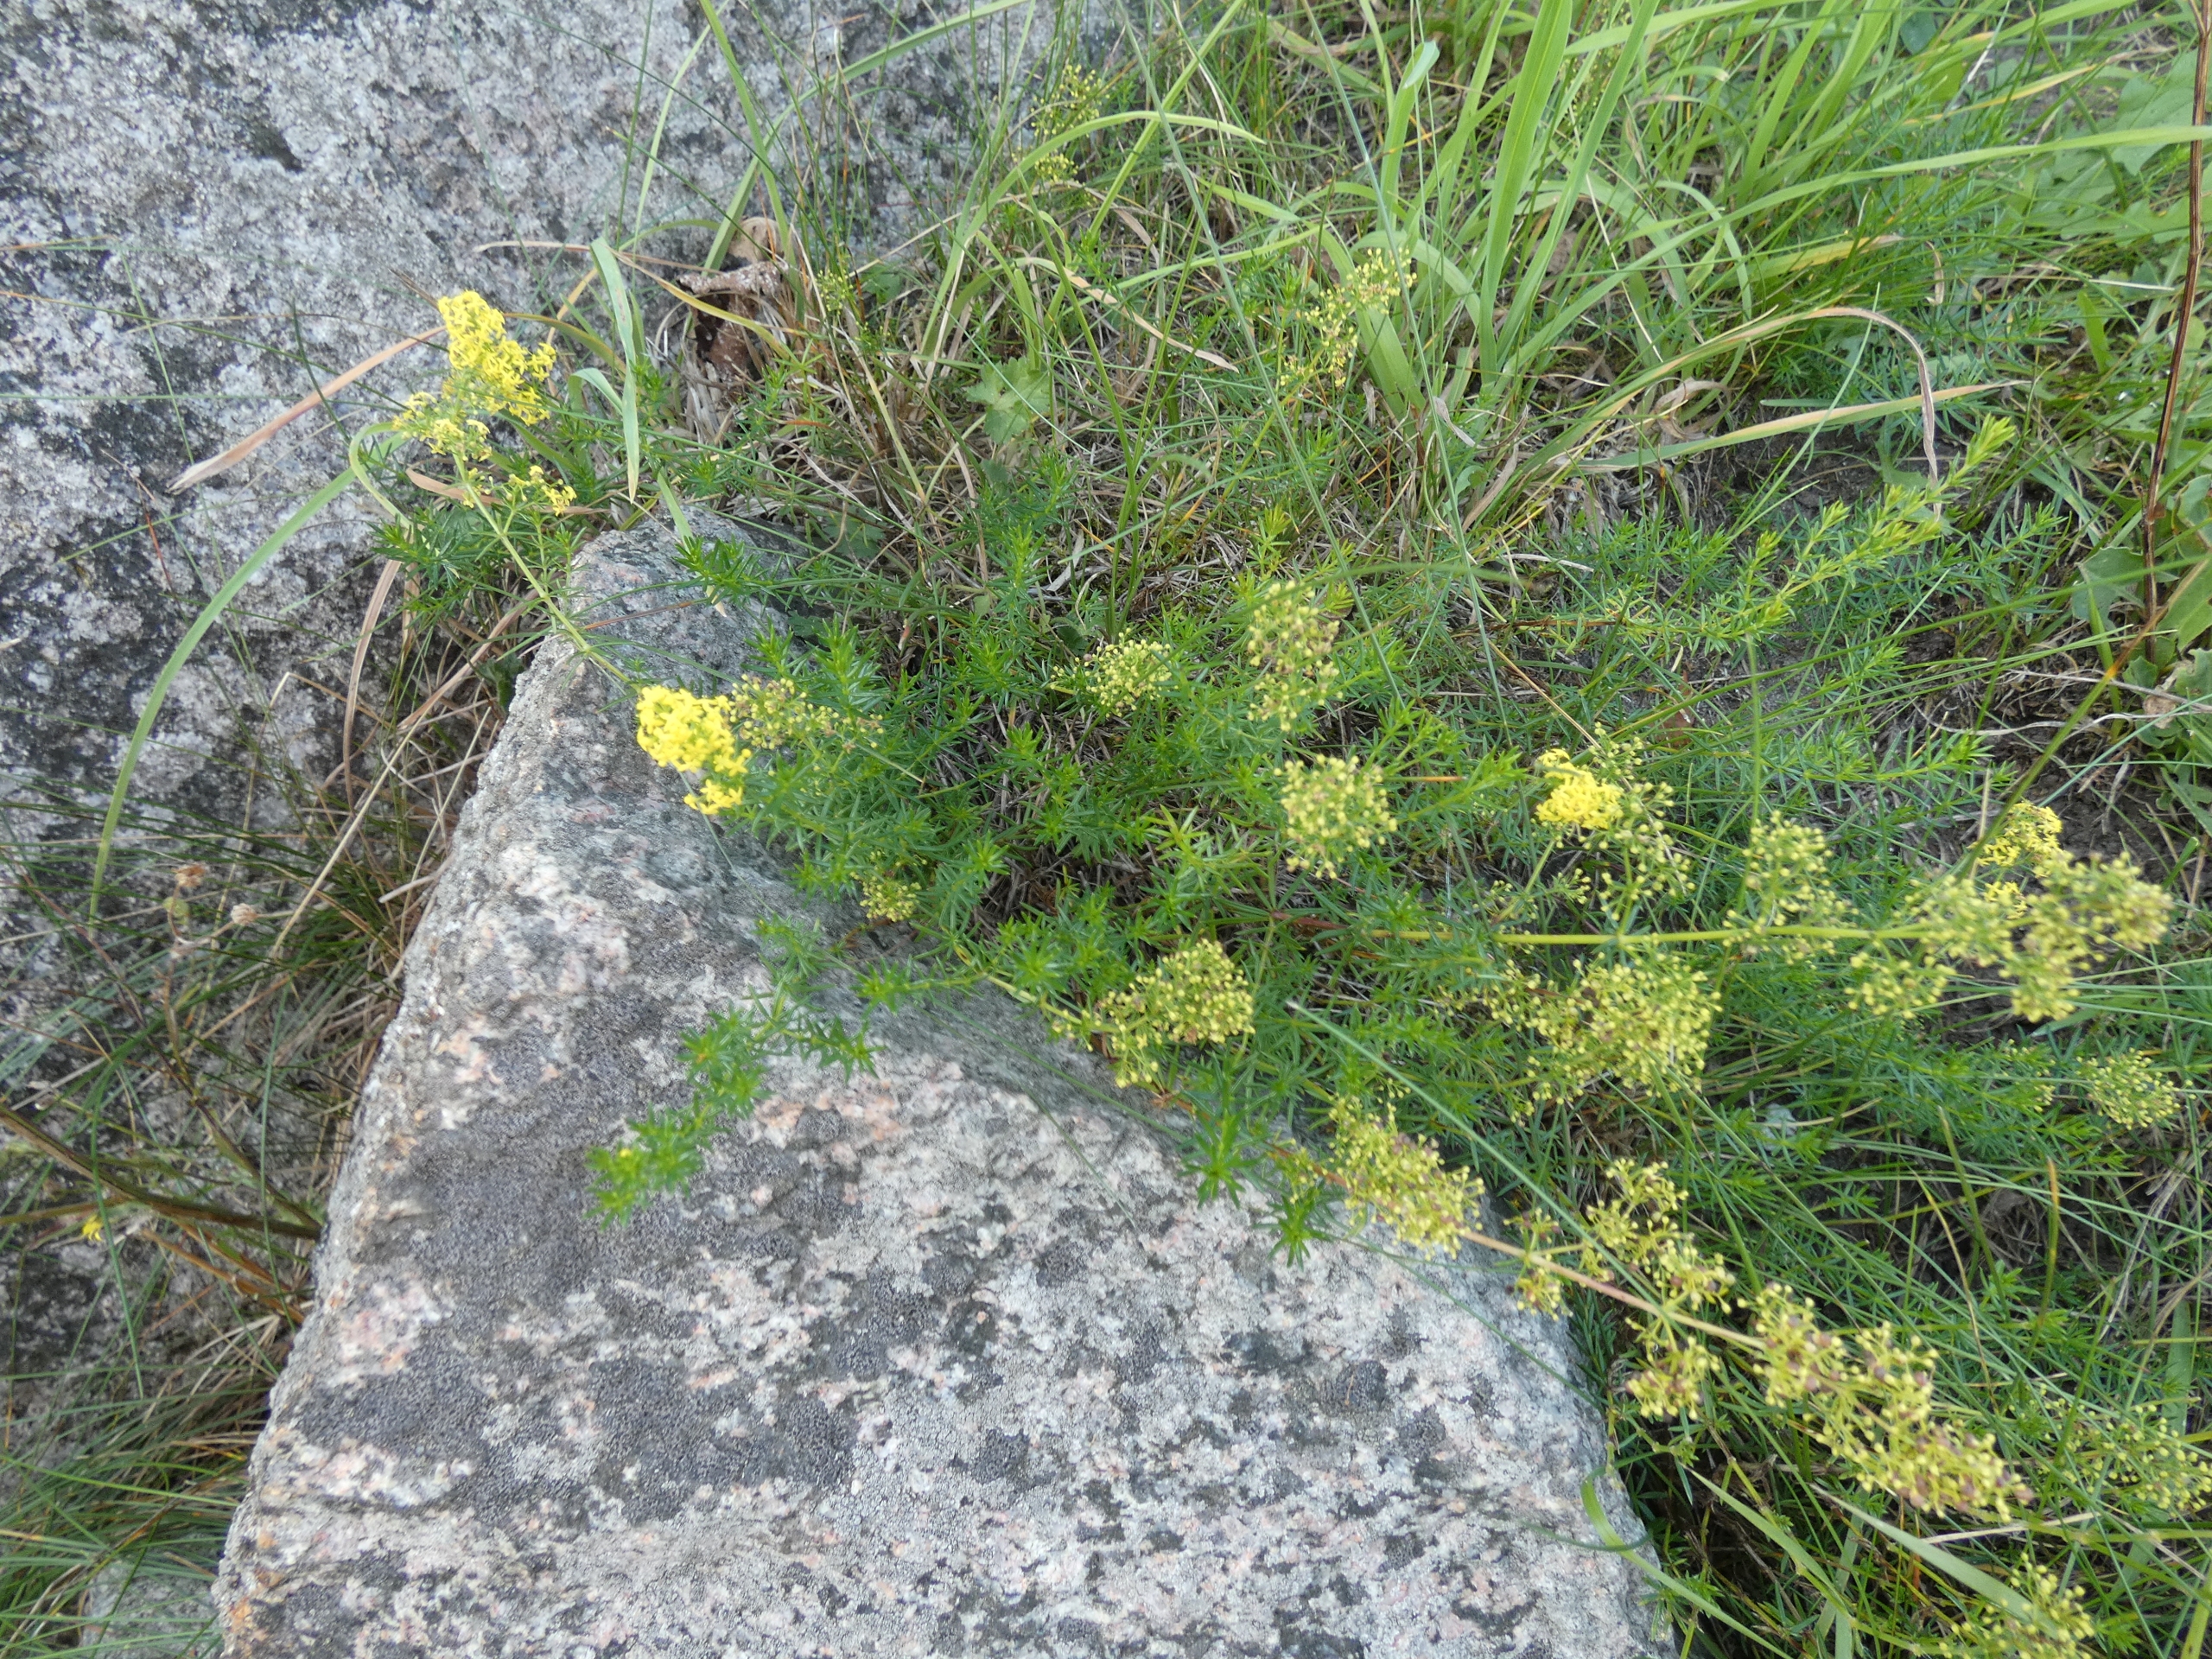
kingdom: Plantae
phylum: Tracheophyta
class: Magnoliopsida
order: Gentianales
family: Rubiaceae
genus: Galium
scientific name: Galium verum
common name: Gul snerre
